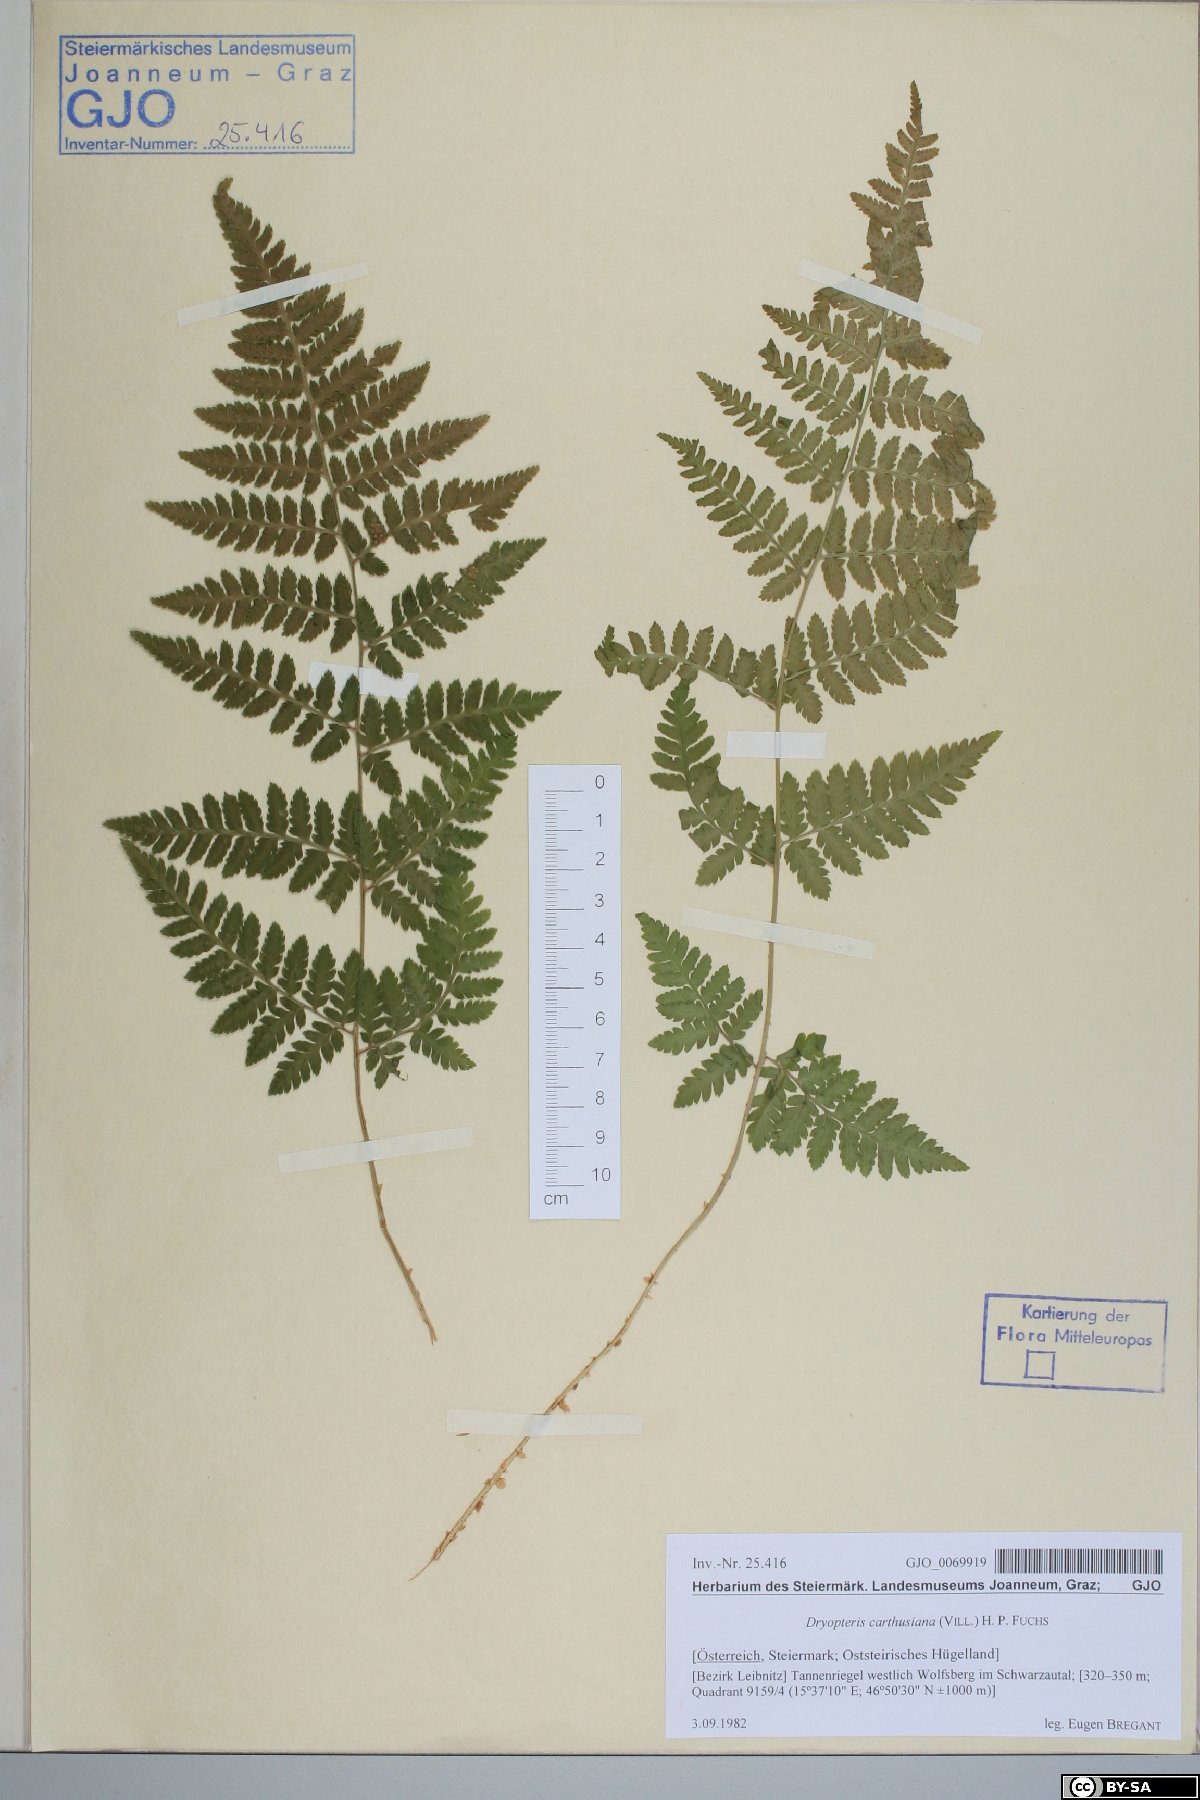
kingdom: Plantae
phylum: Tracheophyta
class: Polypodiopsida
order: Polypodiales
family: Dryopteridaceae
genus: Dryopteris
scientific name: Dryopteris carthusiana
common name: Narrow buckler-fern
